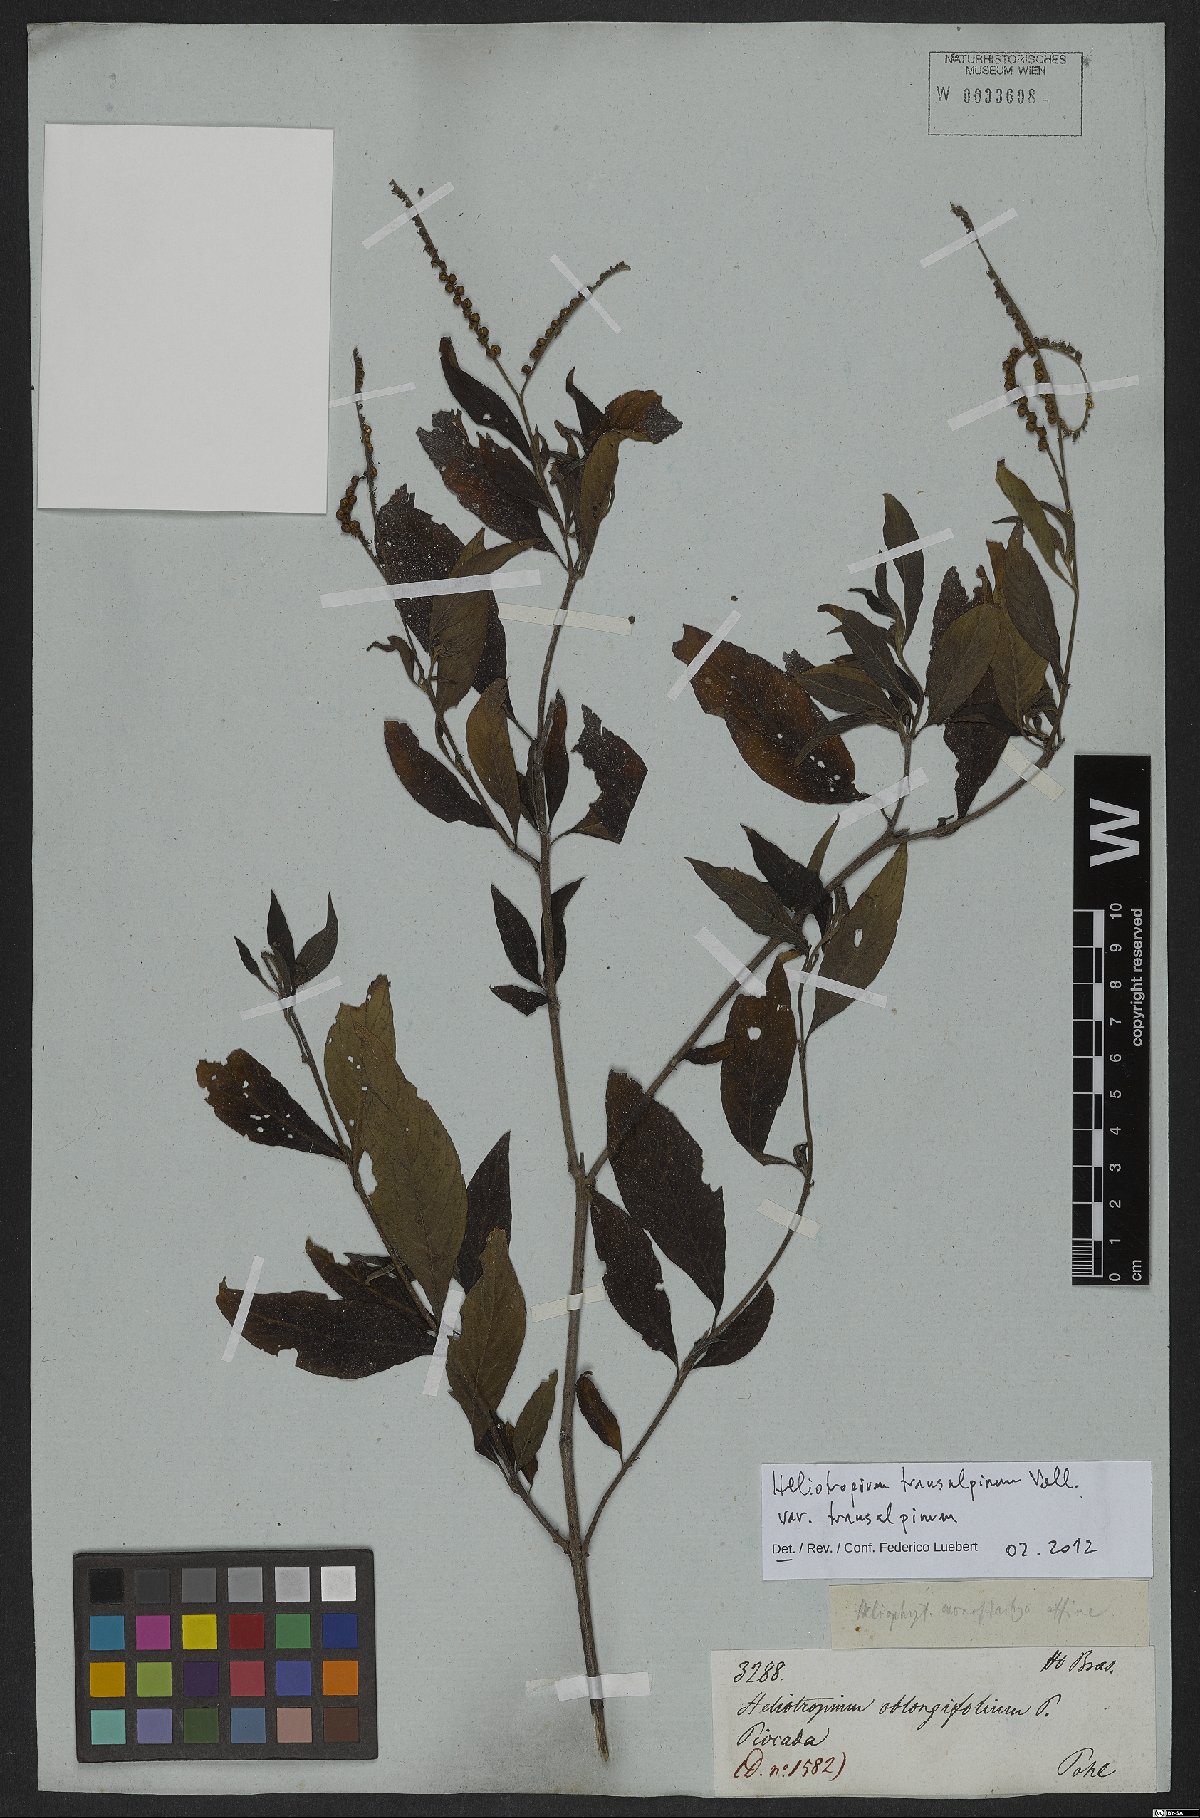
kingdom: Plantae
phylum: Tracheophyta
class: Magnoliopsida
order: Boraginales
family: Heliotropiaceae
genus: Heliotropium
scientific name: Heliotropium transalpinum
